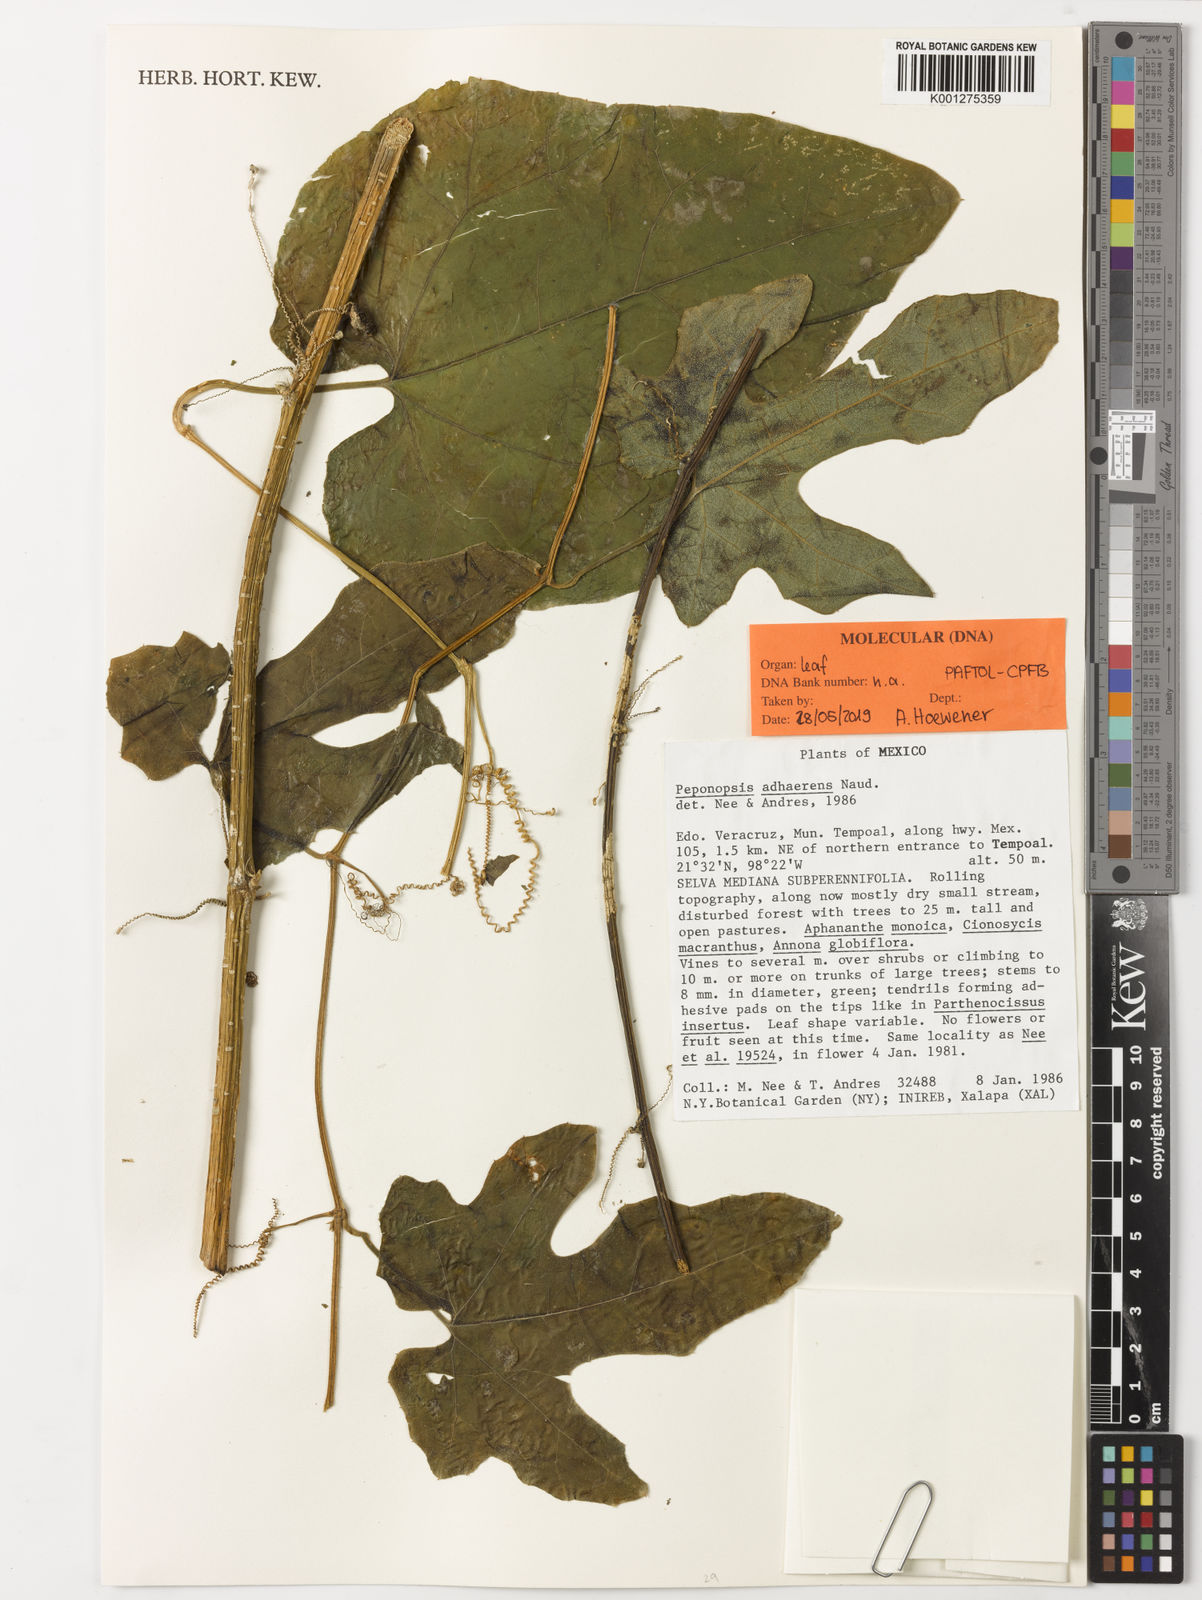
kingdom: Plantae
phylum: Tracheophyta
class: Magnoliopsida
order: Cucurbitales
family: Cucurbitaceae
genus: Peponopsis
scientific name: Peponopsis adhaerens
